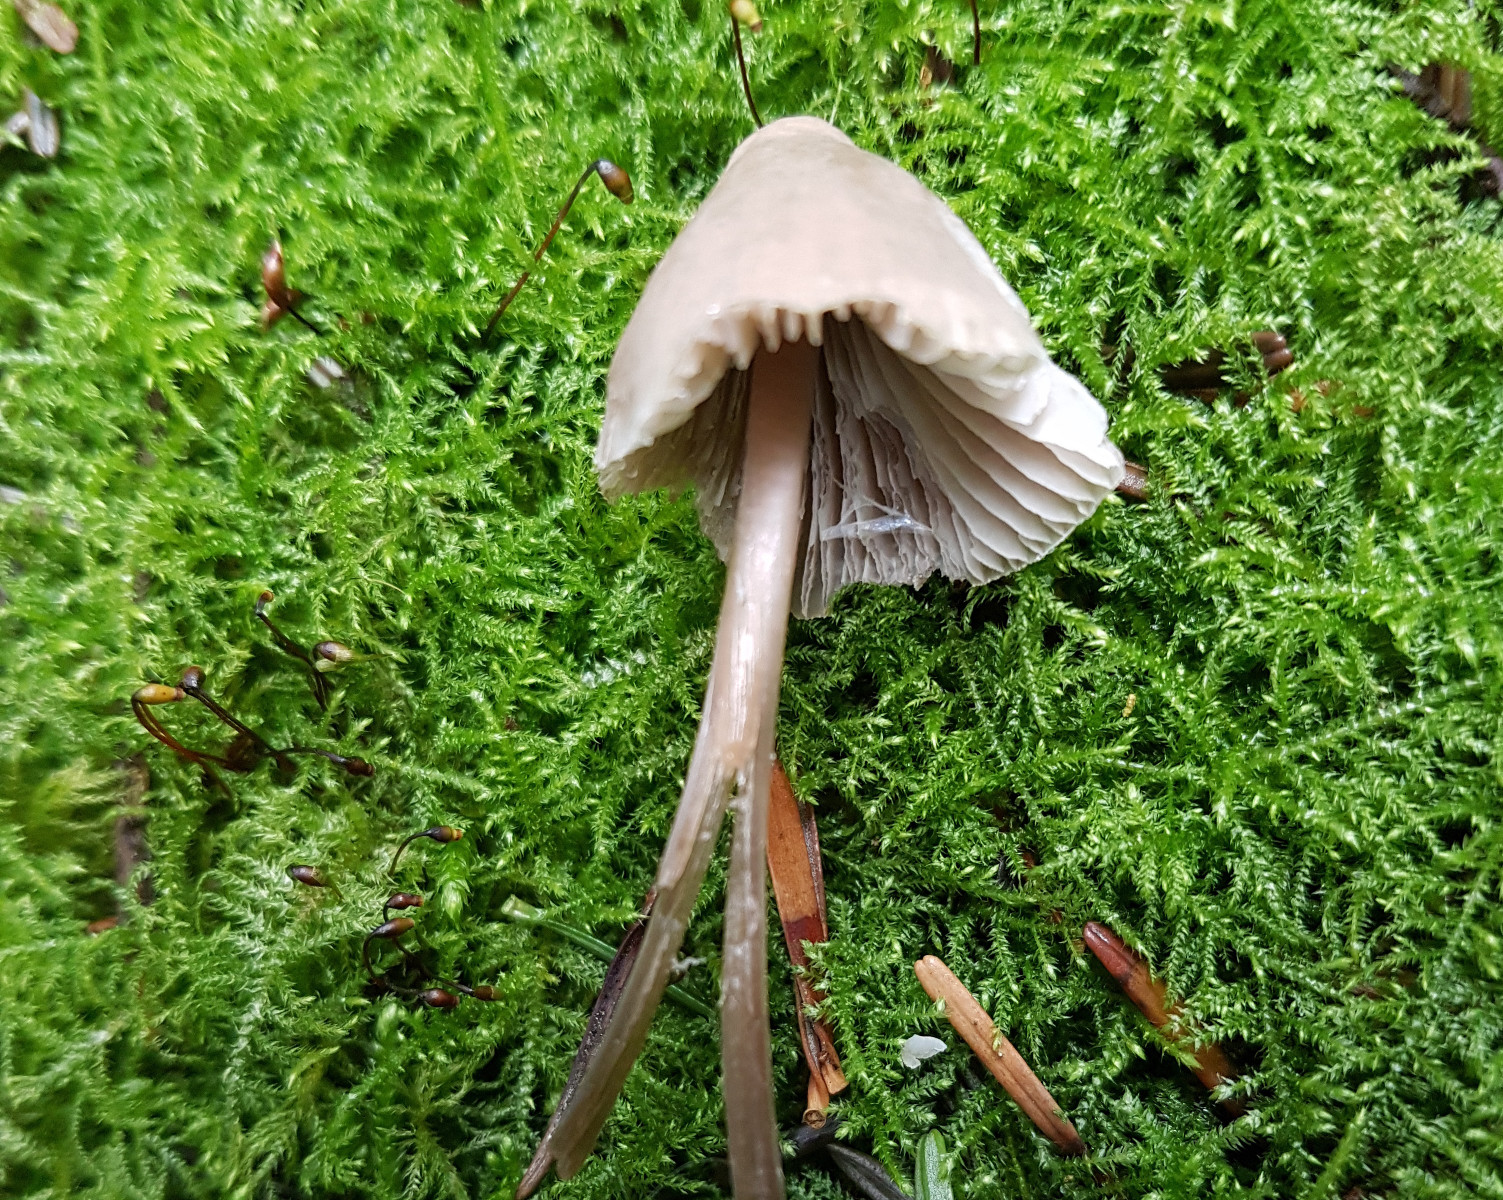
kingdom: Fungi
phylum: Basidiomycota
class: Agaricomycetes
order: Agaricales
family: Mycenaceae
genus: Mycena
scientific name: Mycena
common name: huesvamp
